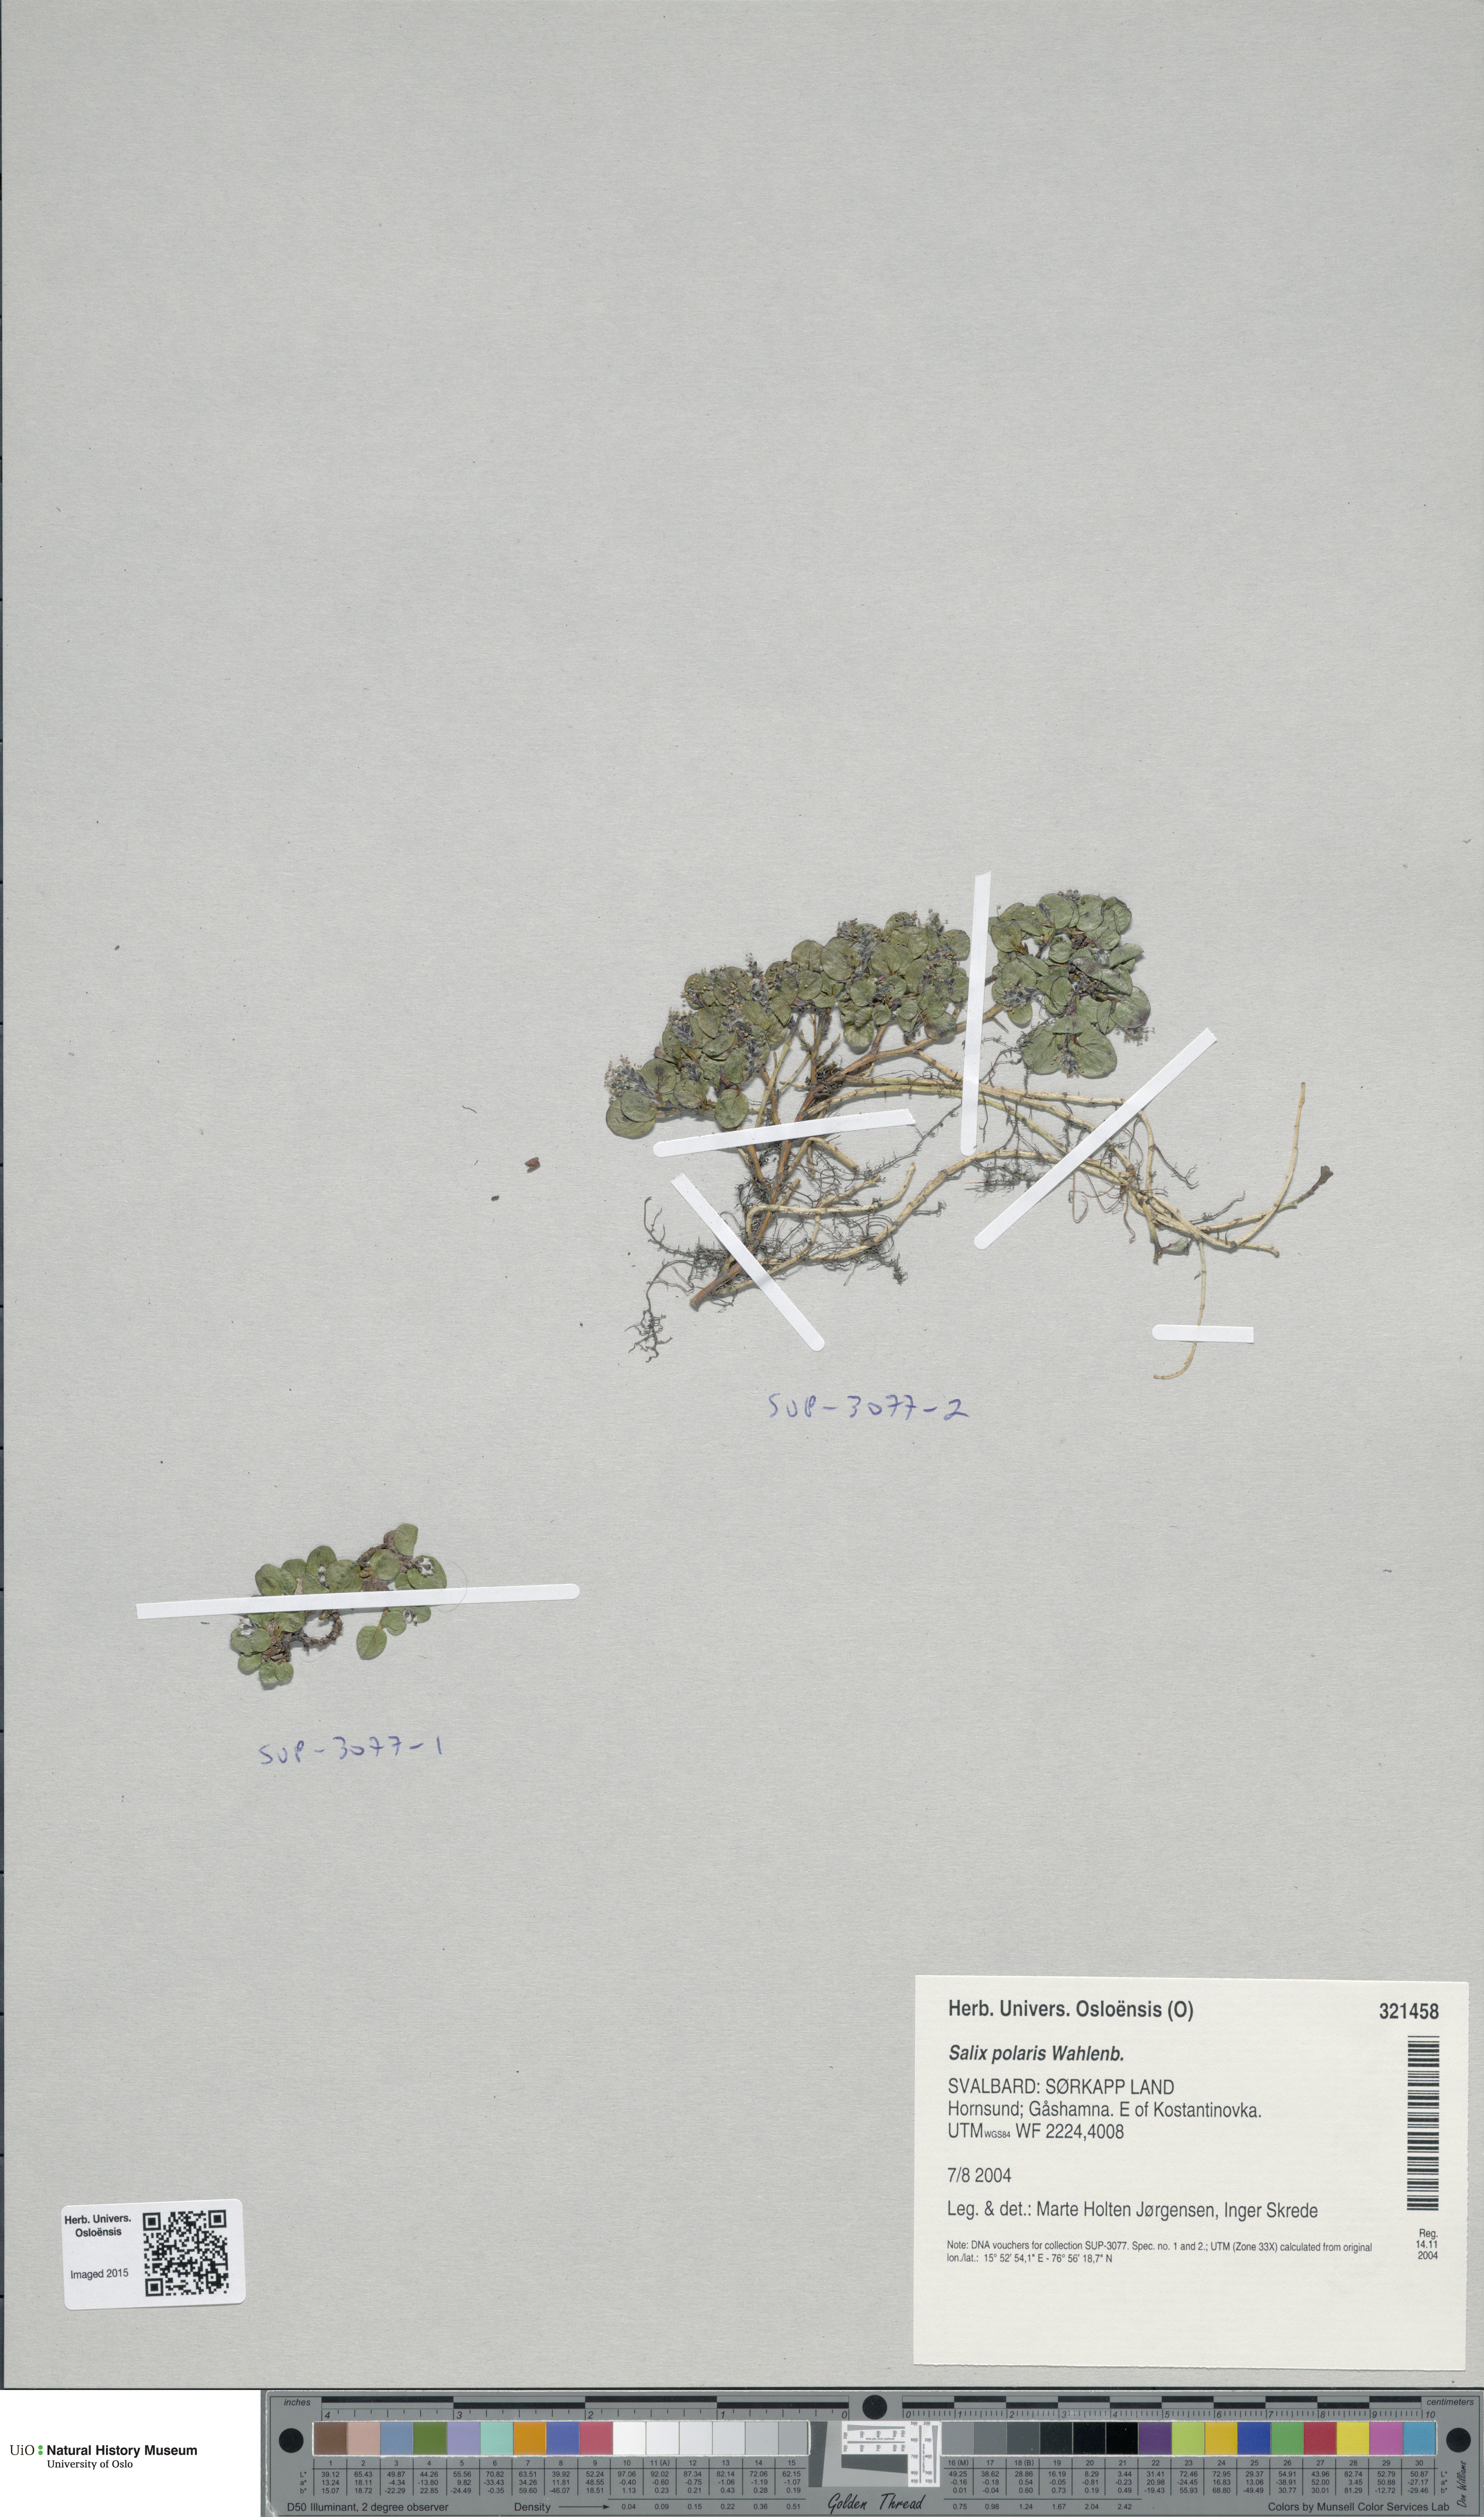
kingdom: Plantae
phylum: Tracheophyta
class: Magnoliopsida
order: Malpighiales
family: Salicaceae
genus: Salix
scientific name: Salix polaris
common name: Polar willow
